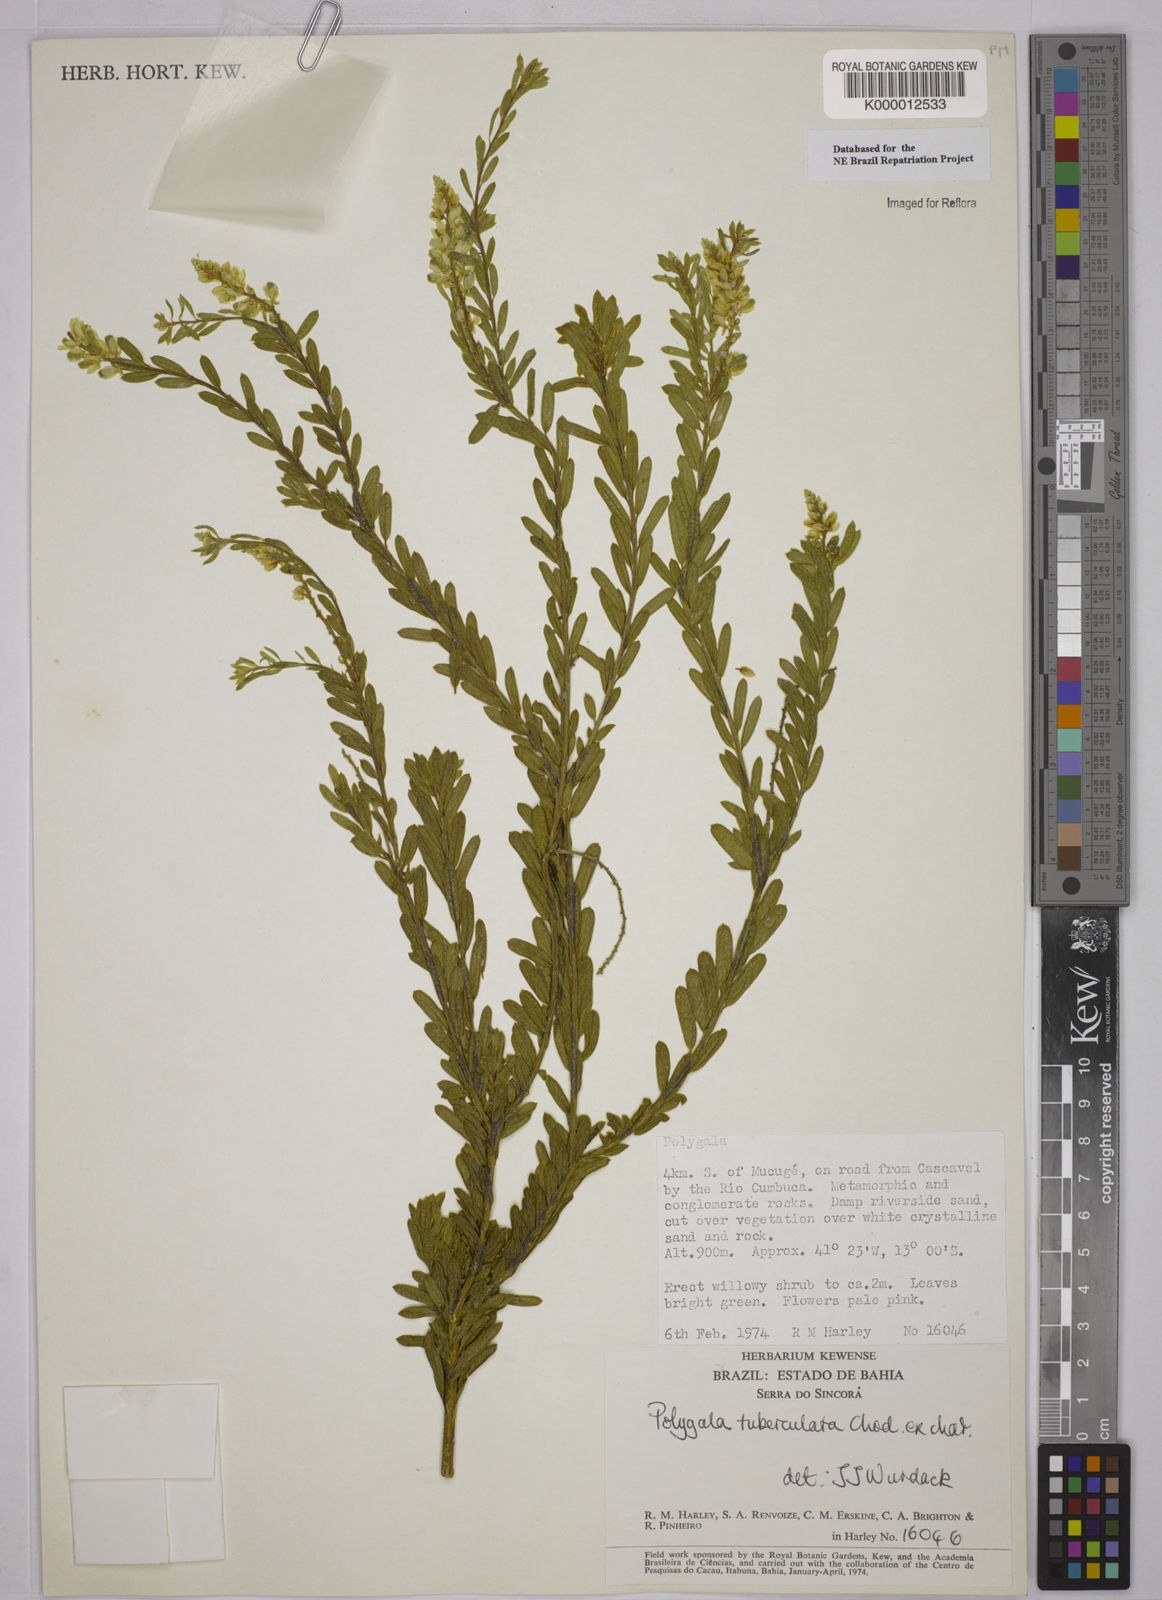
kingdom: Plantae
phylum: Tracheophyta
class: Magnoliopsida
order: Fabales
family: Polygalaceae
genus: Polygala
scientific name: Polygala tuberculata
